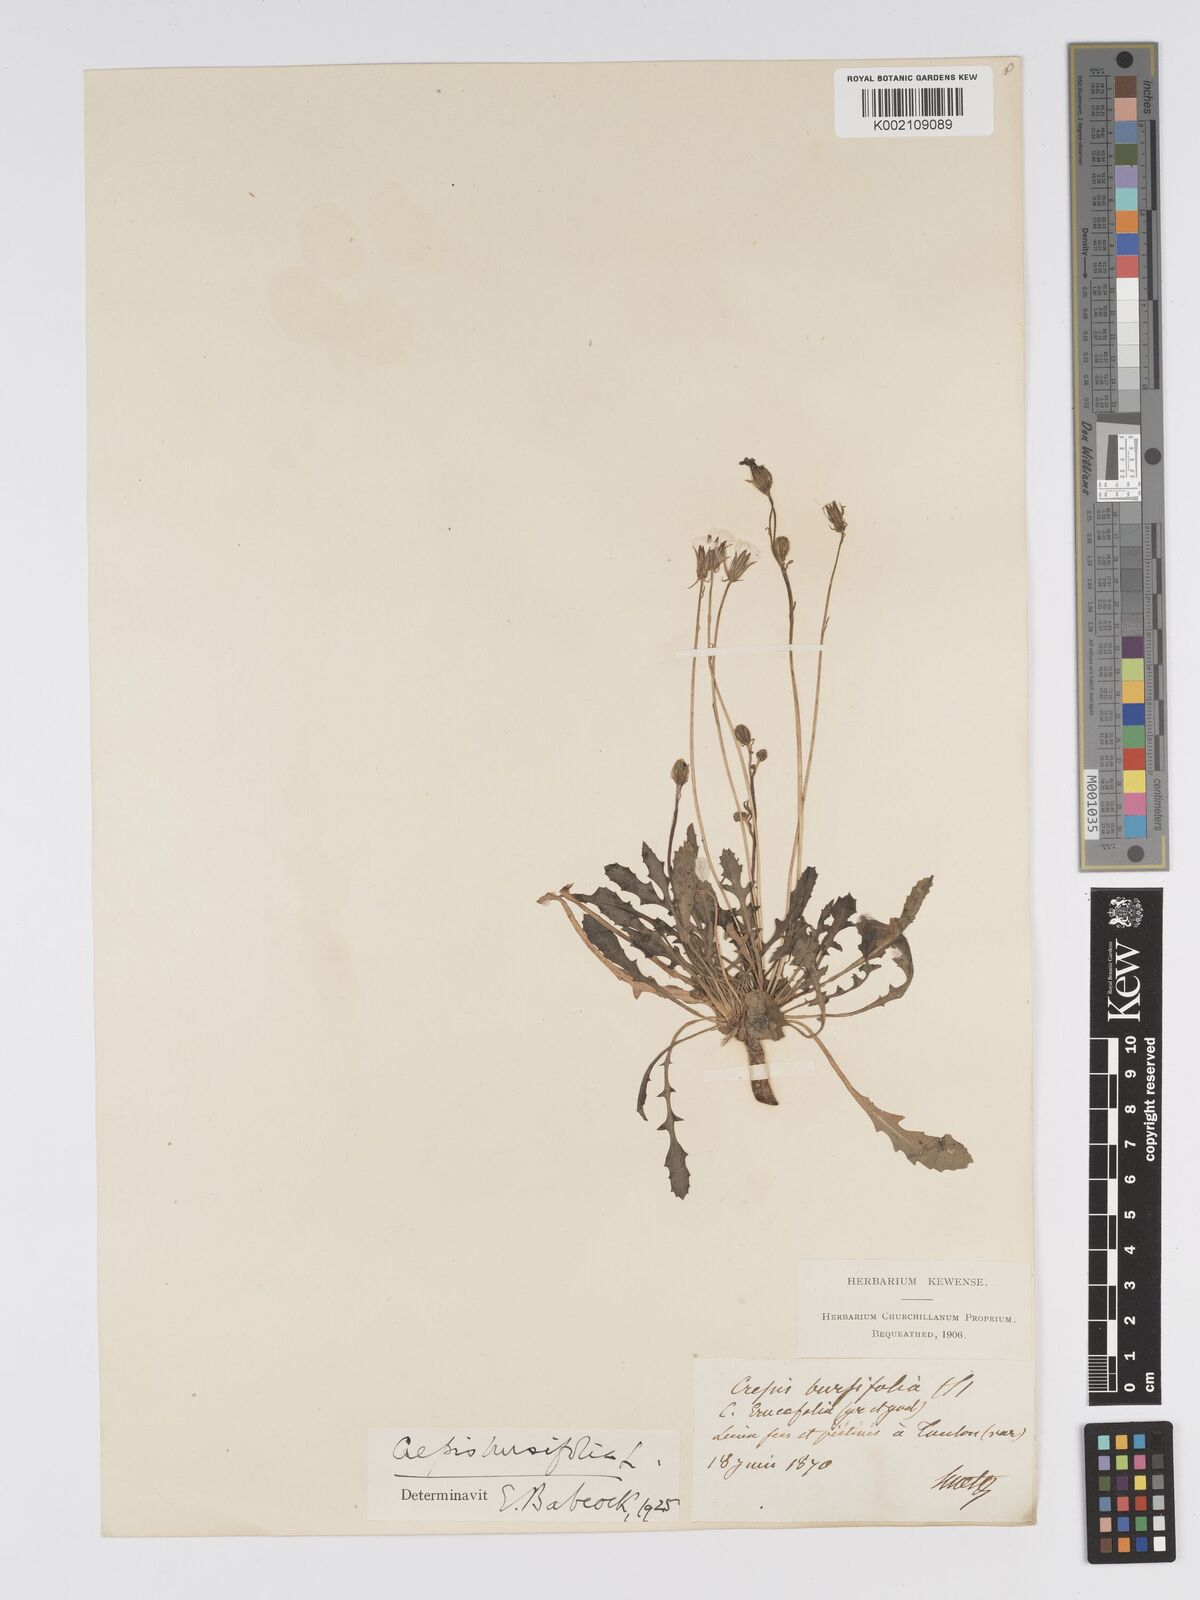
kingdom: Plantae
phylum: Tracheophyta
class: Magnoliopsida
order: Asterales
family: Asteraceae
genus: Crepis
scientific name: Crepis bursifolia
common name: Italian hawksbeard
